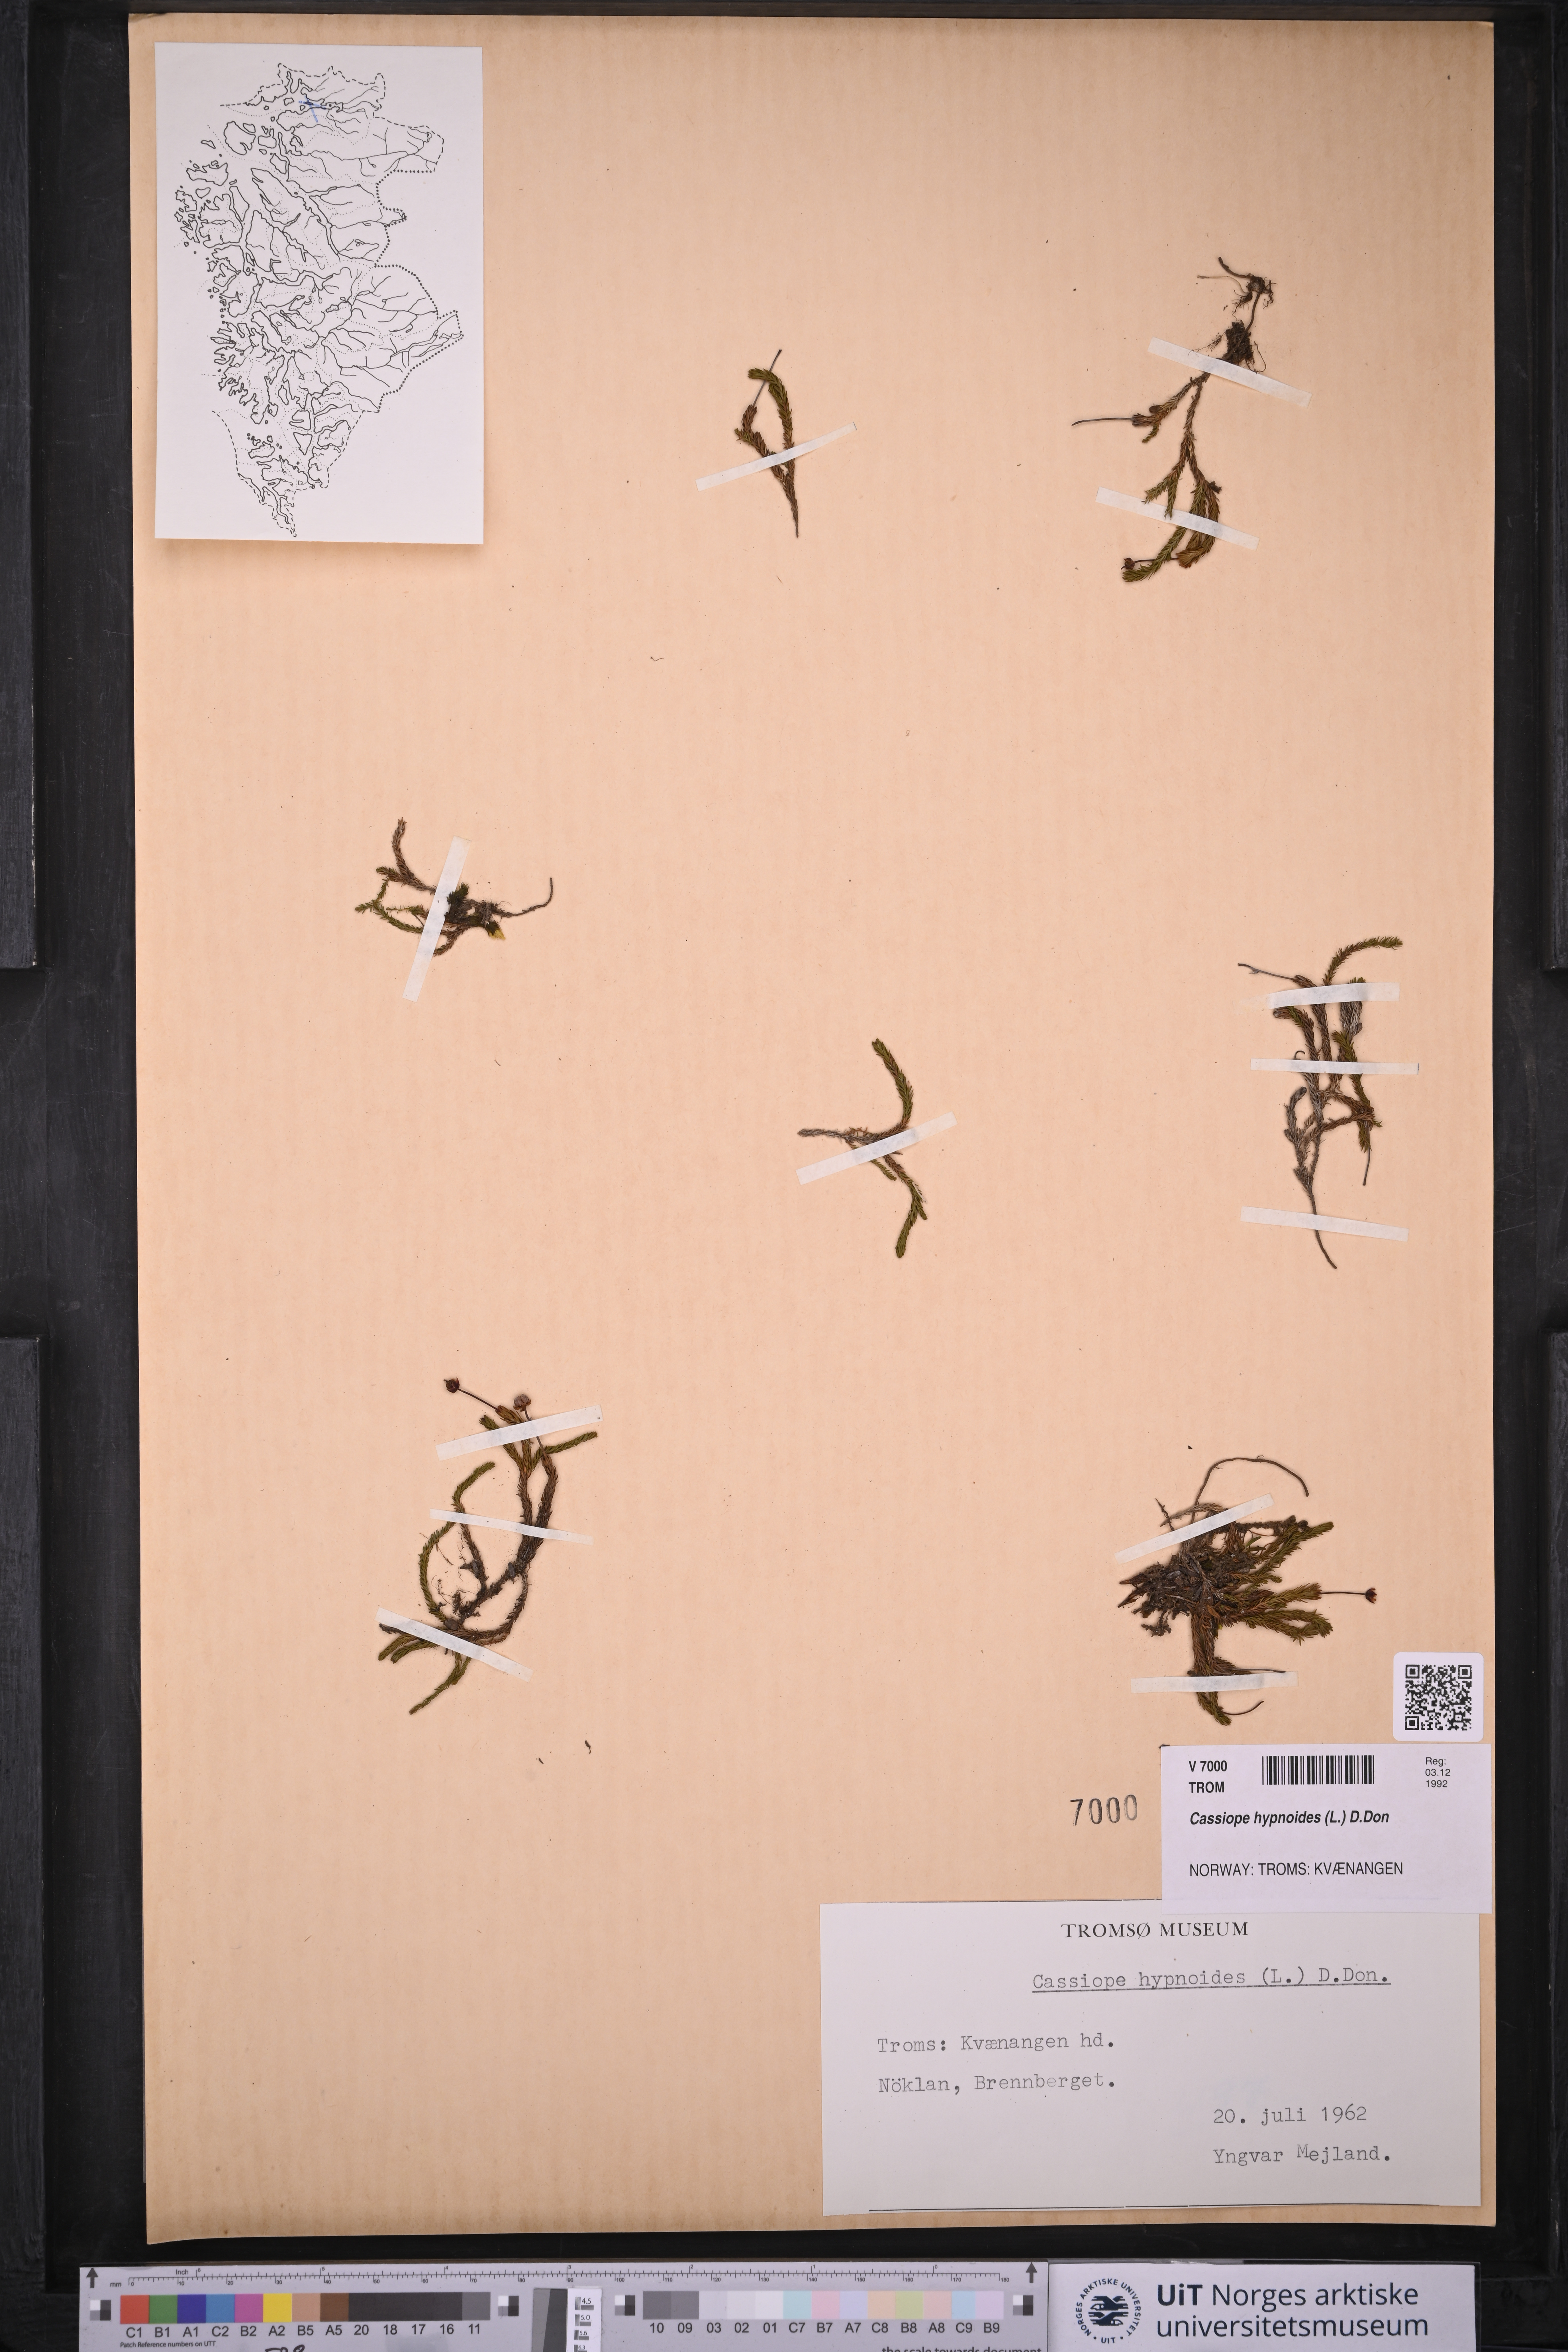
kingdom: Plantae
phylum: Tracheophyta
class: Magnoliopsida
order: Ericales
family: Ericaceae
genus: Harrimanella
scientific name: Harrimanella hypnoides
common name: Moss bell heather
